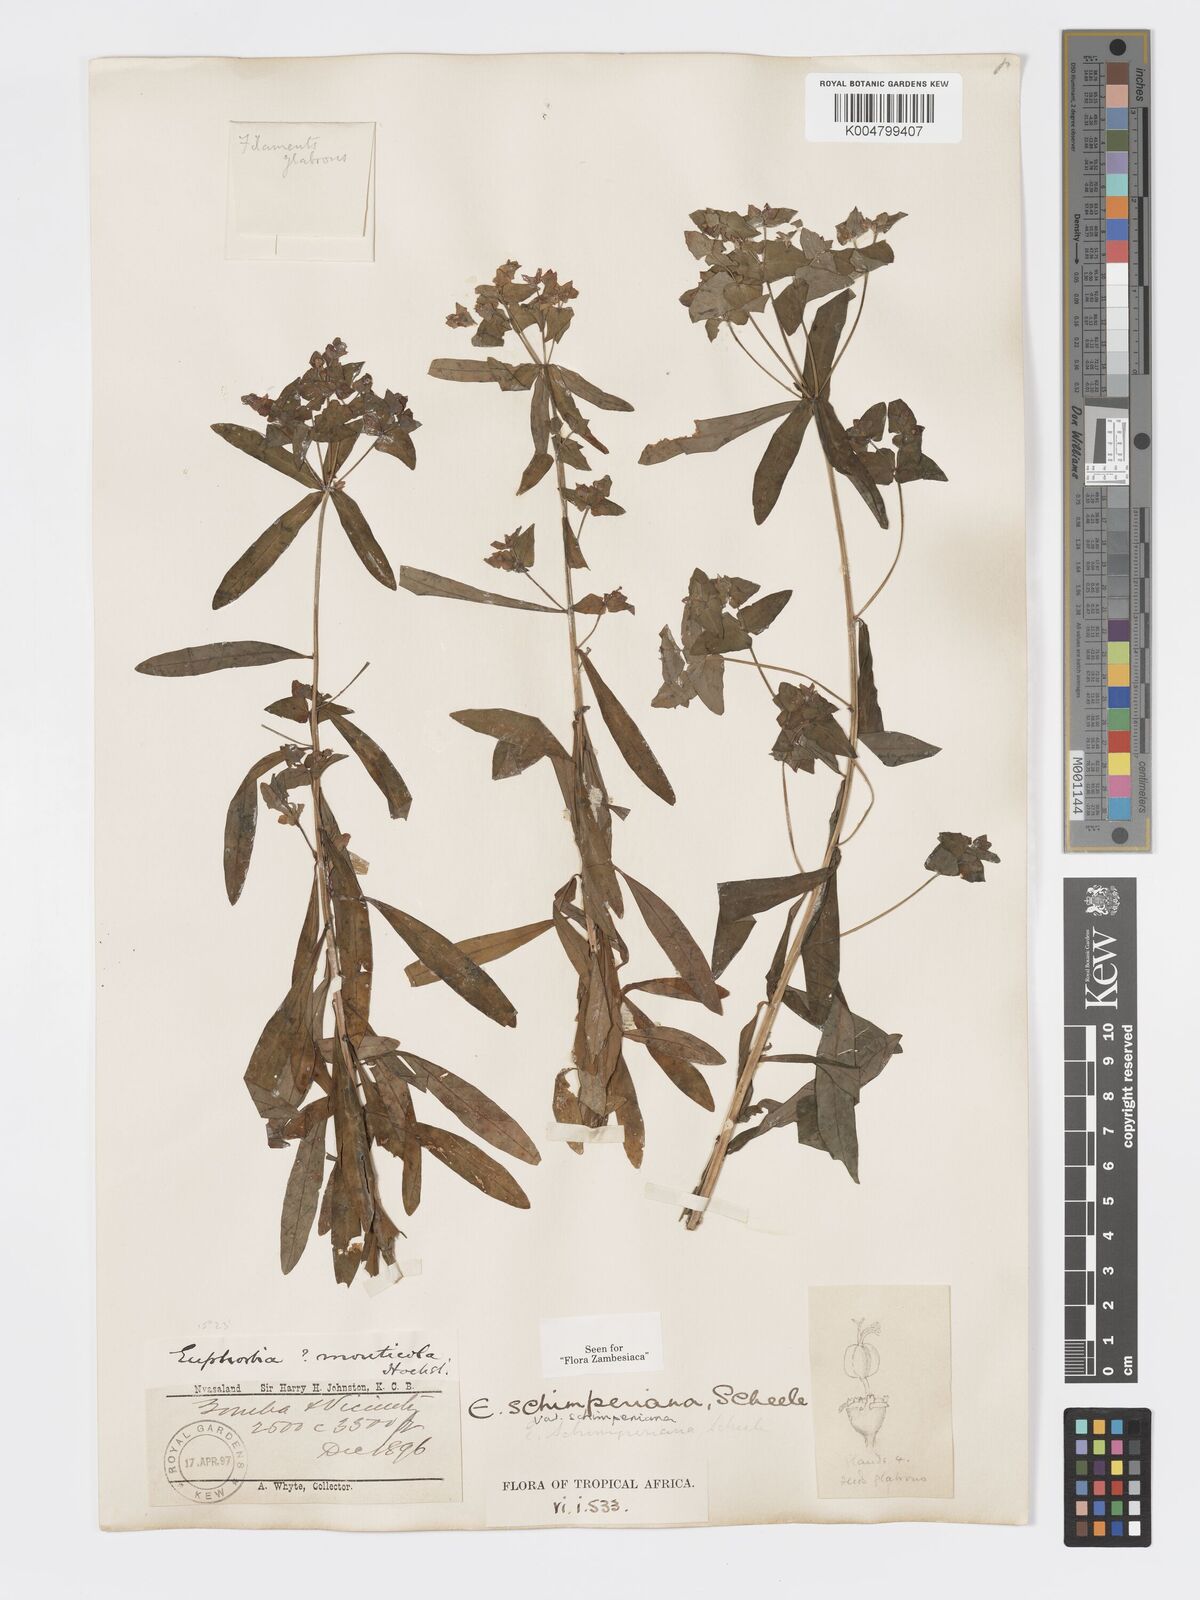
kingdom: Plantae
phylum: Tracheophyta
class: Magnoliopsida
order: Malpighiales
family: Euphorbiaceae
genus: Euphorbia
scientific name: Euphorbia schimperiana
